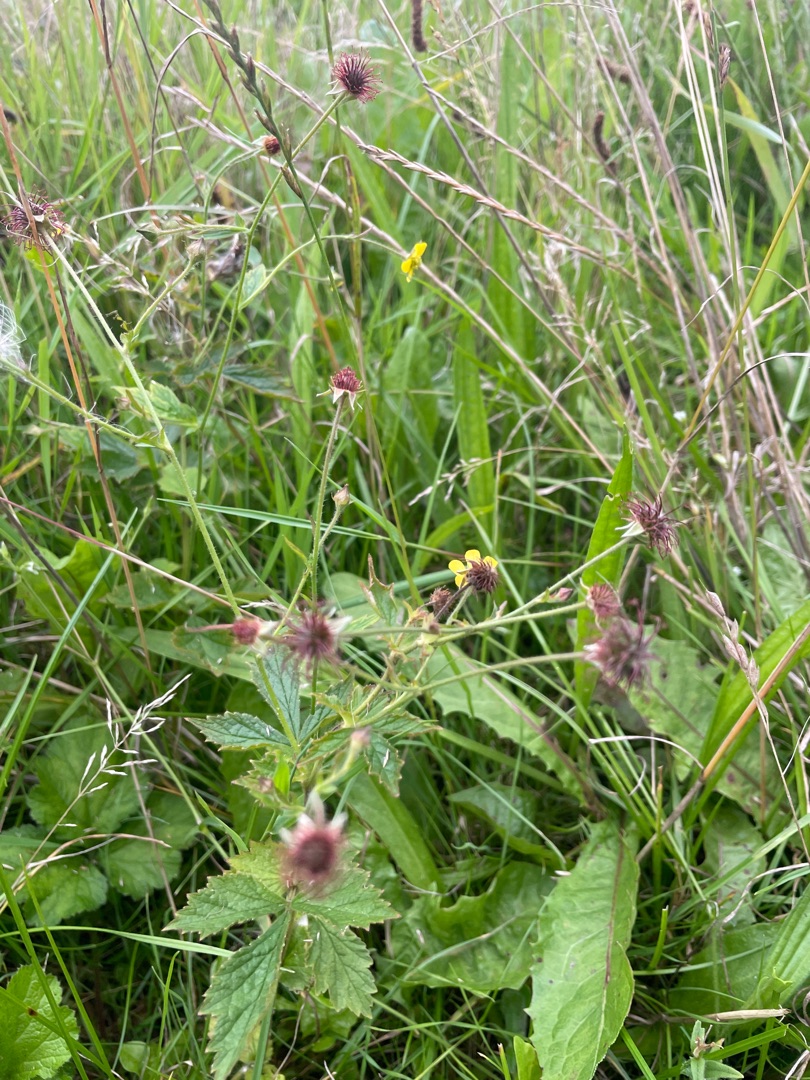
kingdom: Plantae
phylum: Tracheophyta
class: Magnoliopsida
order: Rosales
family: Rosaceae
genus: Geum
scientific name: Geum urbanum
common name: Feber-nellikerod
